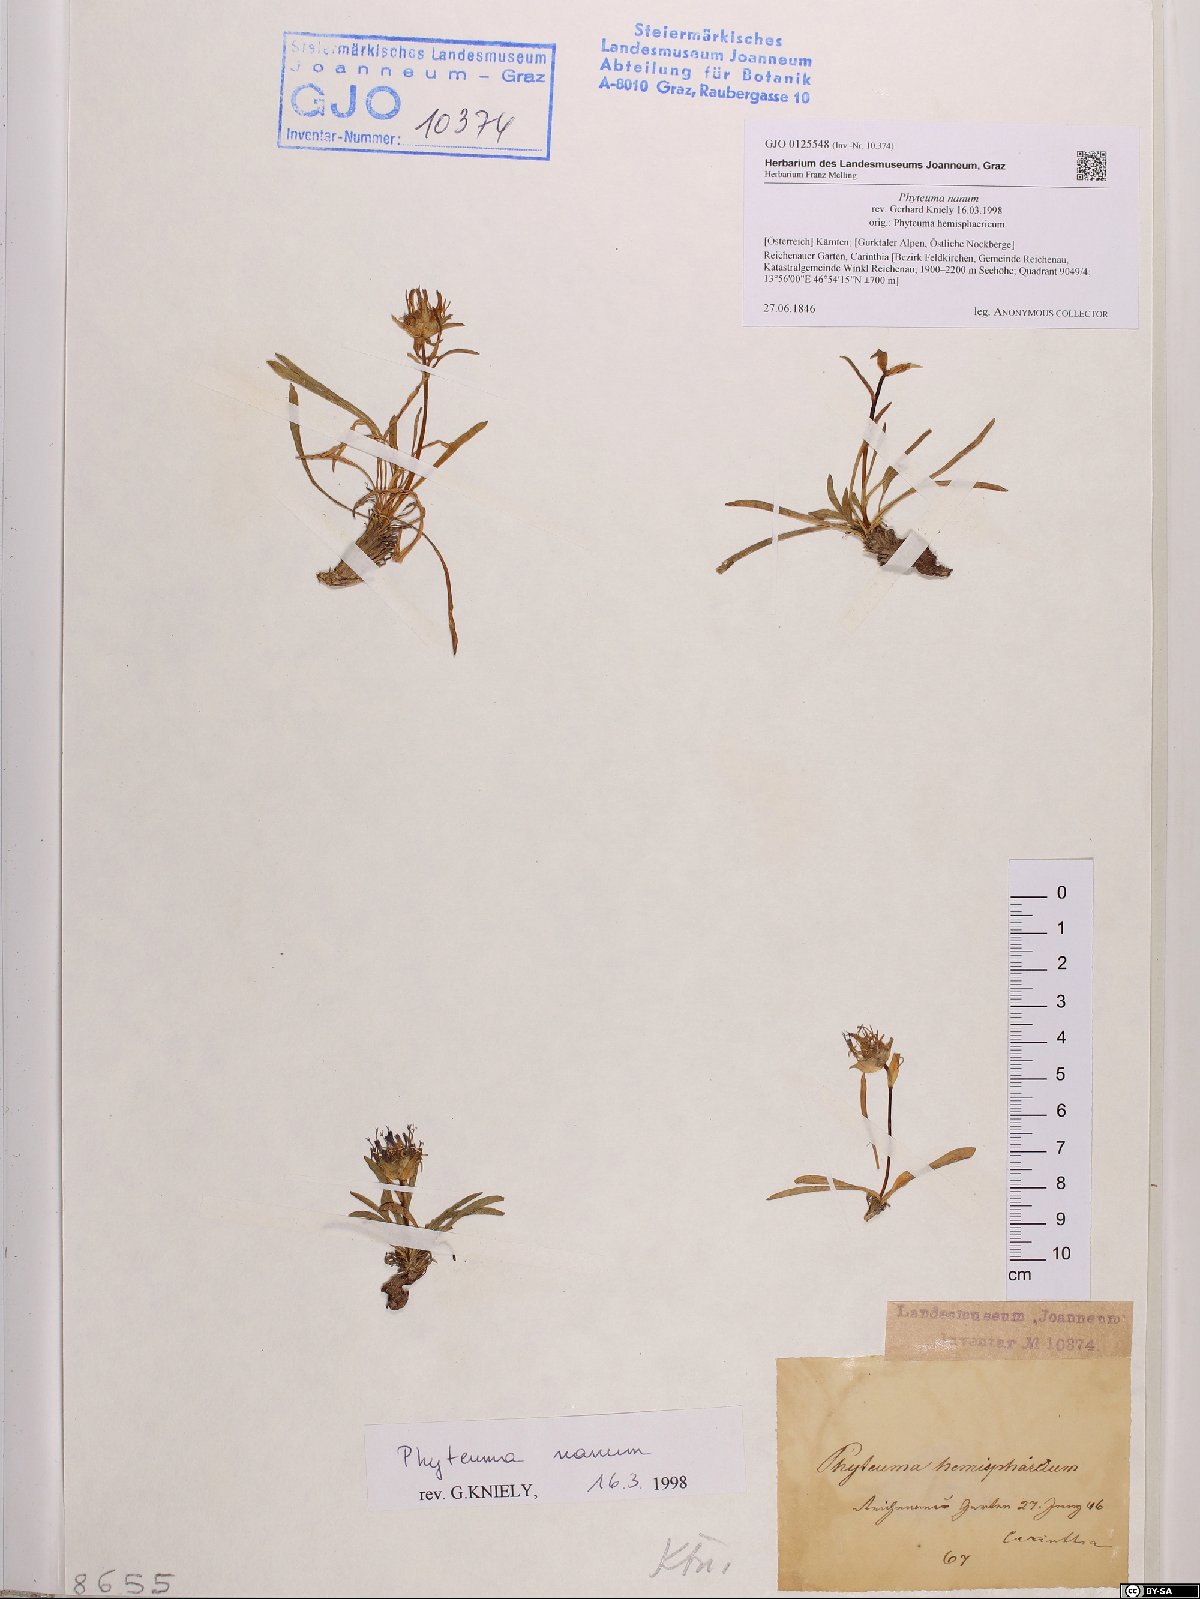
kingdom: Plantae
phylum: Tracheophyta
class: Magnoliopsida
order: Asterales
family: Campanulaceae
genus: Phyteuma
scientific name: Phyteuma globulariifolium
